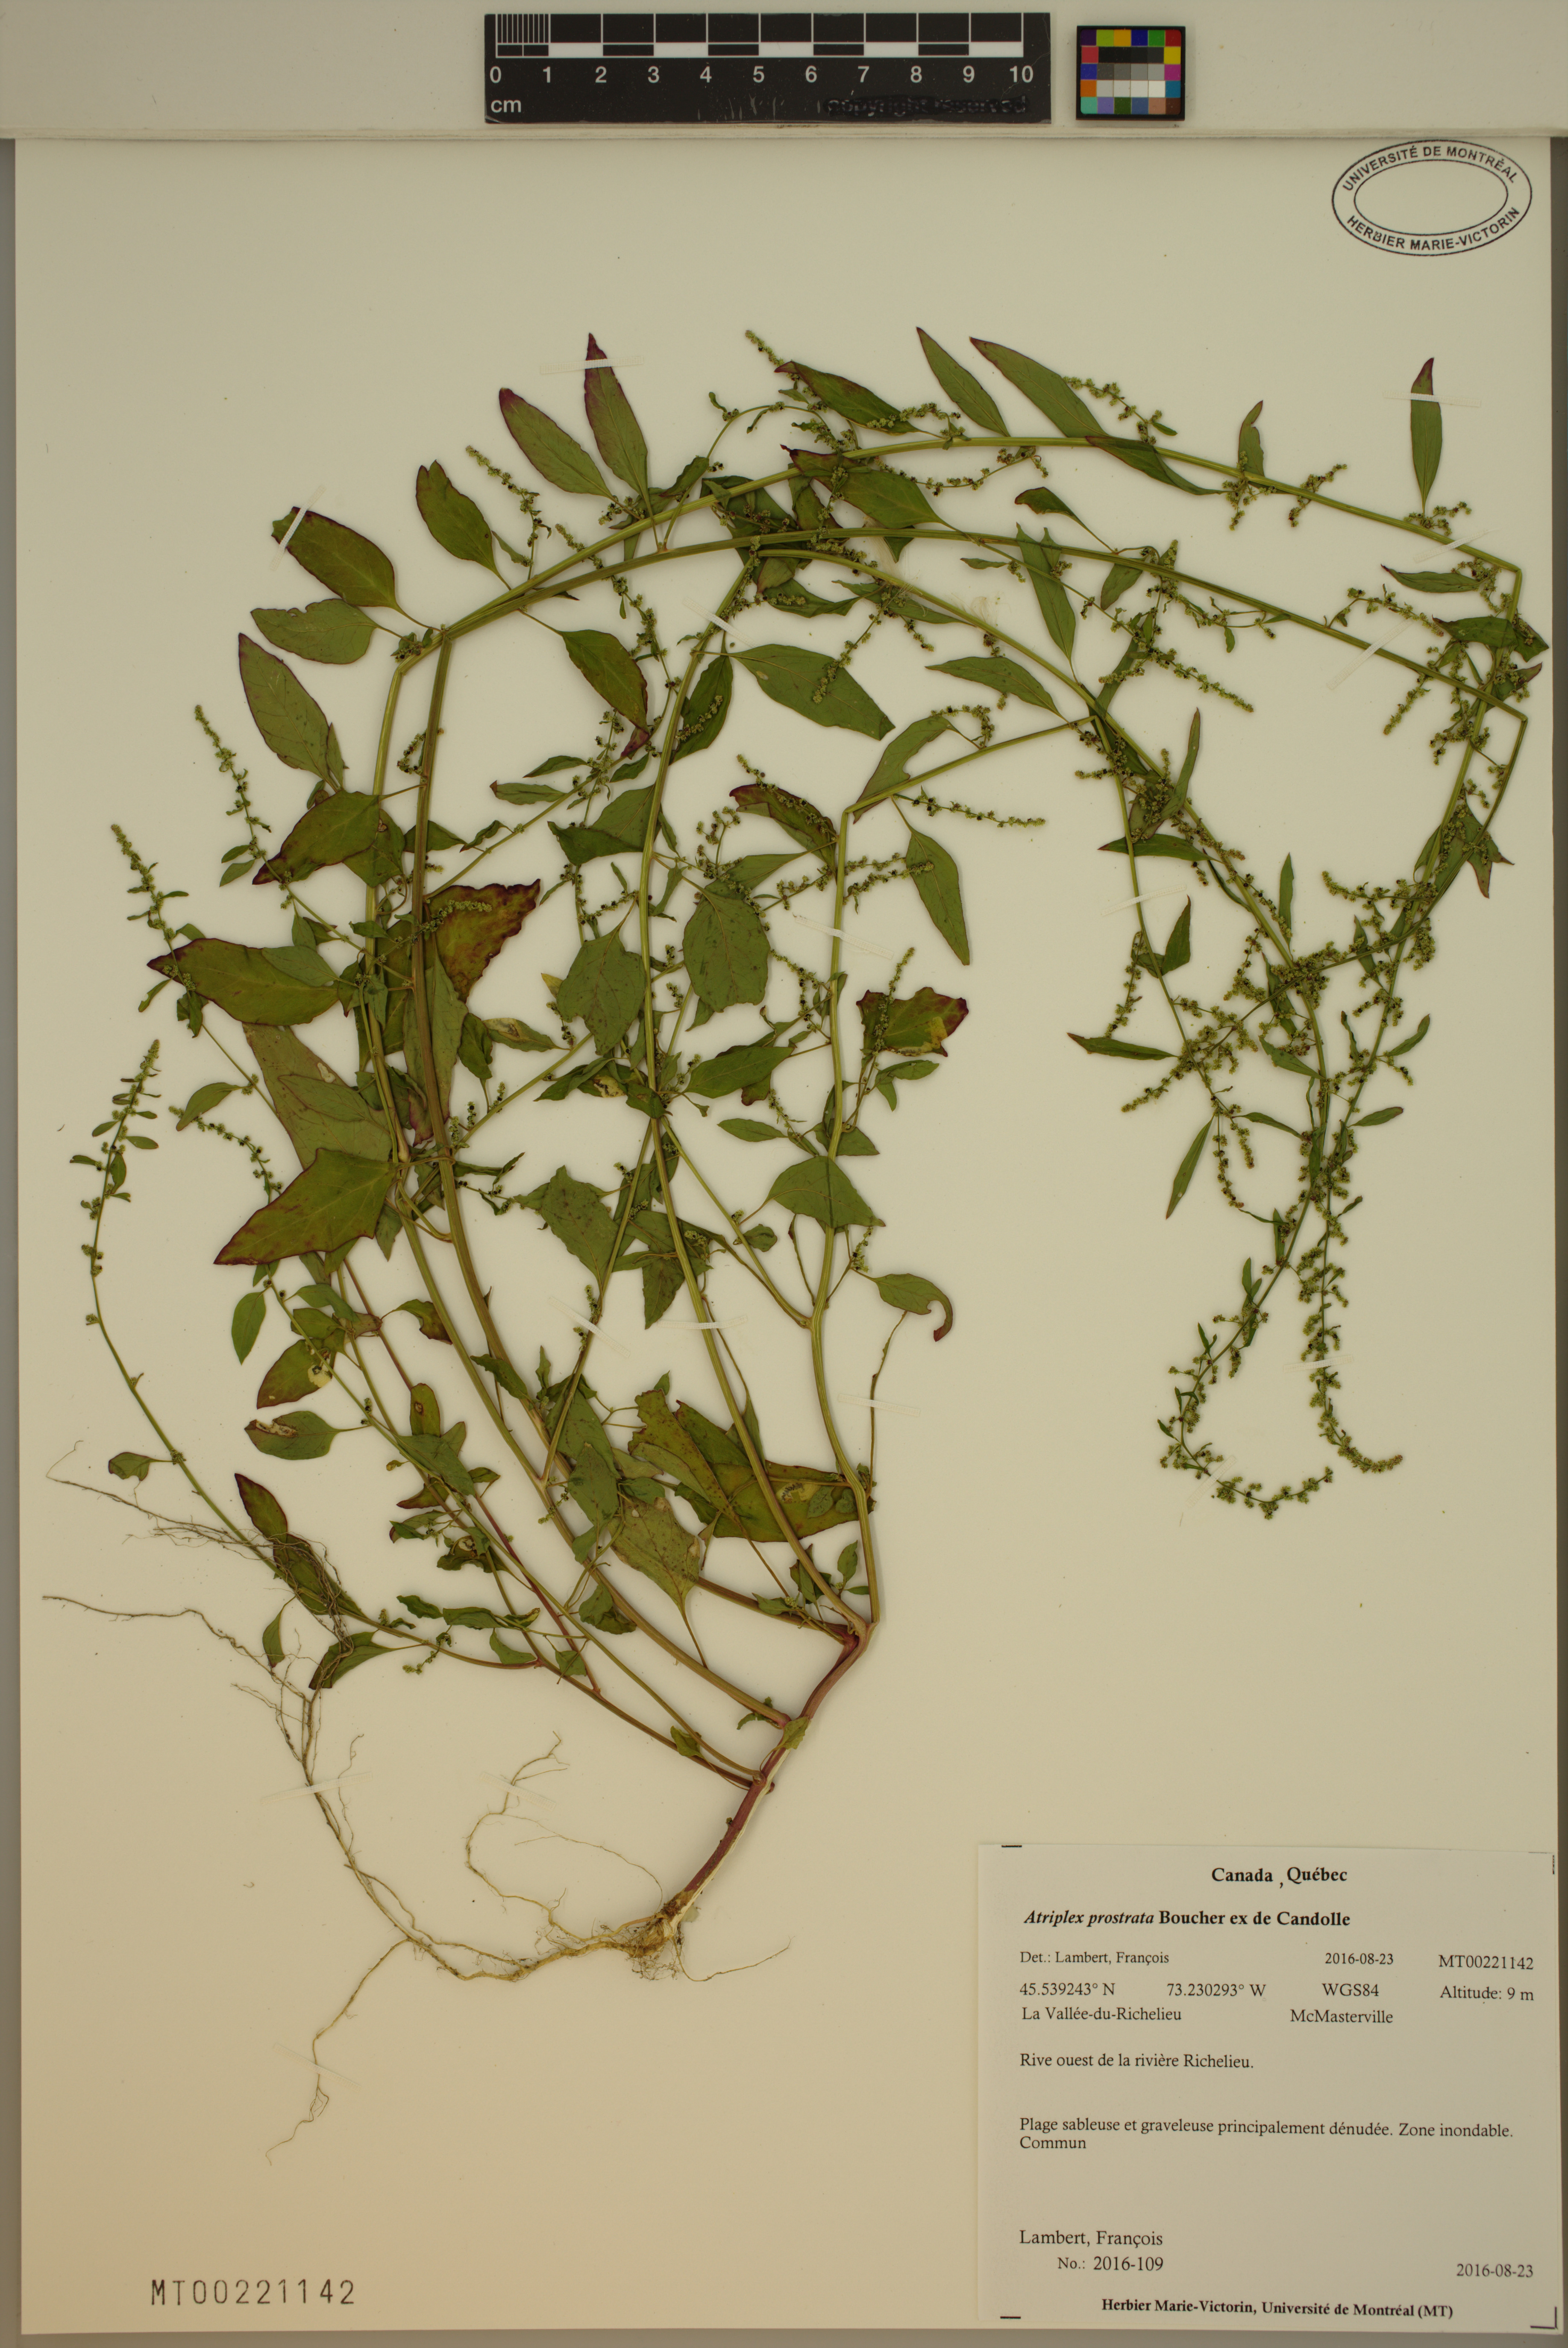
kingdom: Plantae
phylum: Tracheophyta
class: Magnoliopsida
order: Caryophyllales
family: Amaranthaceae
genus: Atriplex
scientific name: Atriplex prostrata
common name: Spear-leaved orache
